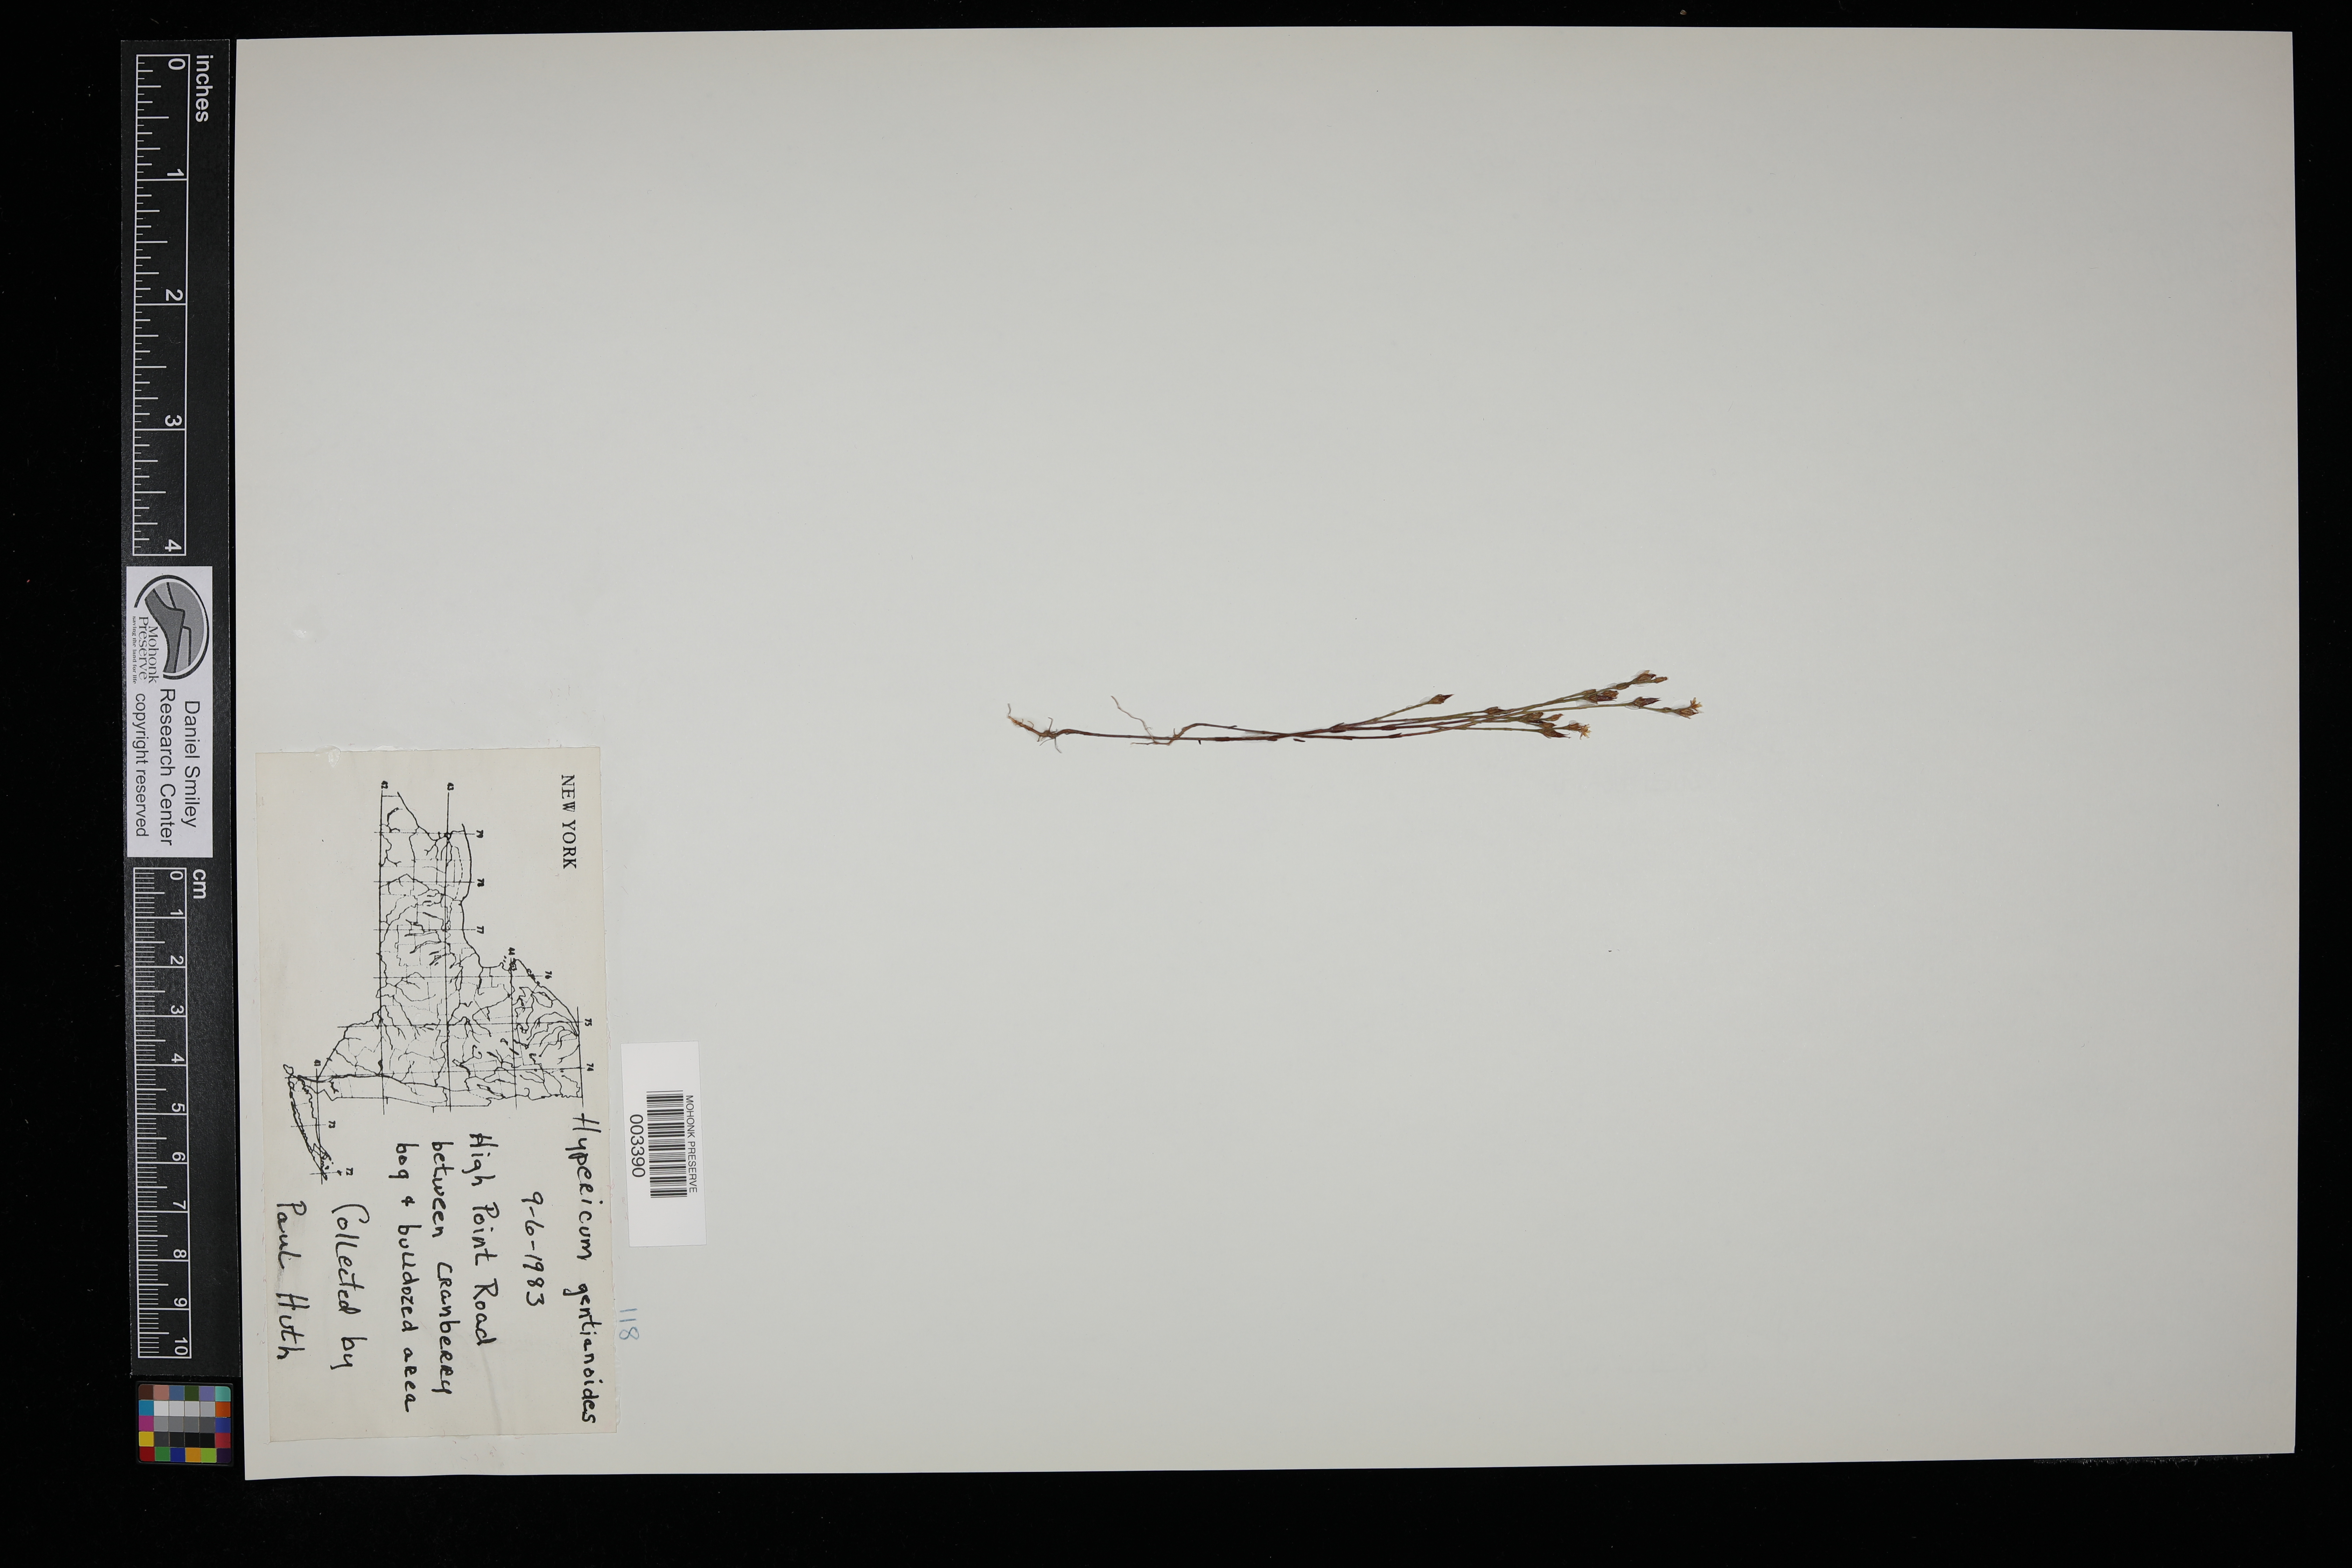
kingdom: Plantae
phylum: Tracheophyta
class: Magnoliopsida
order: Malpighiales
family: Hypericaceae
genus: Hypericum
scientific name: Hypericum gentianoides
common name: Gentian-leaved st. john's-wort
